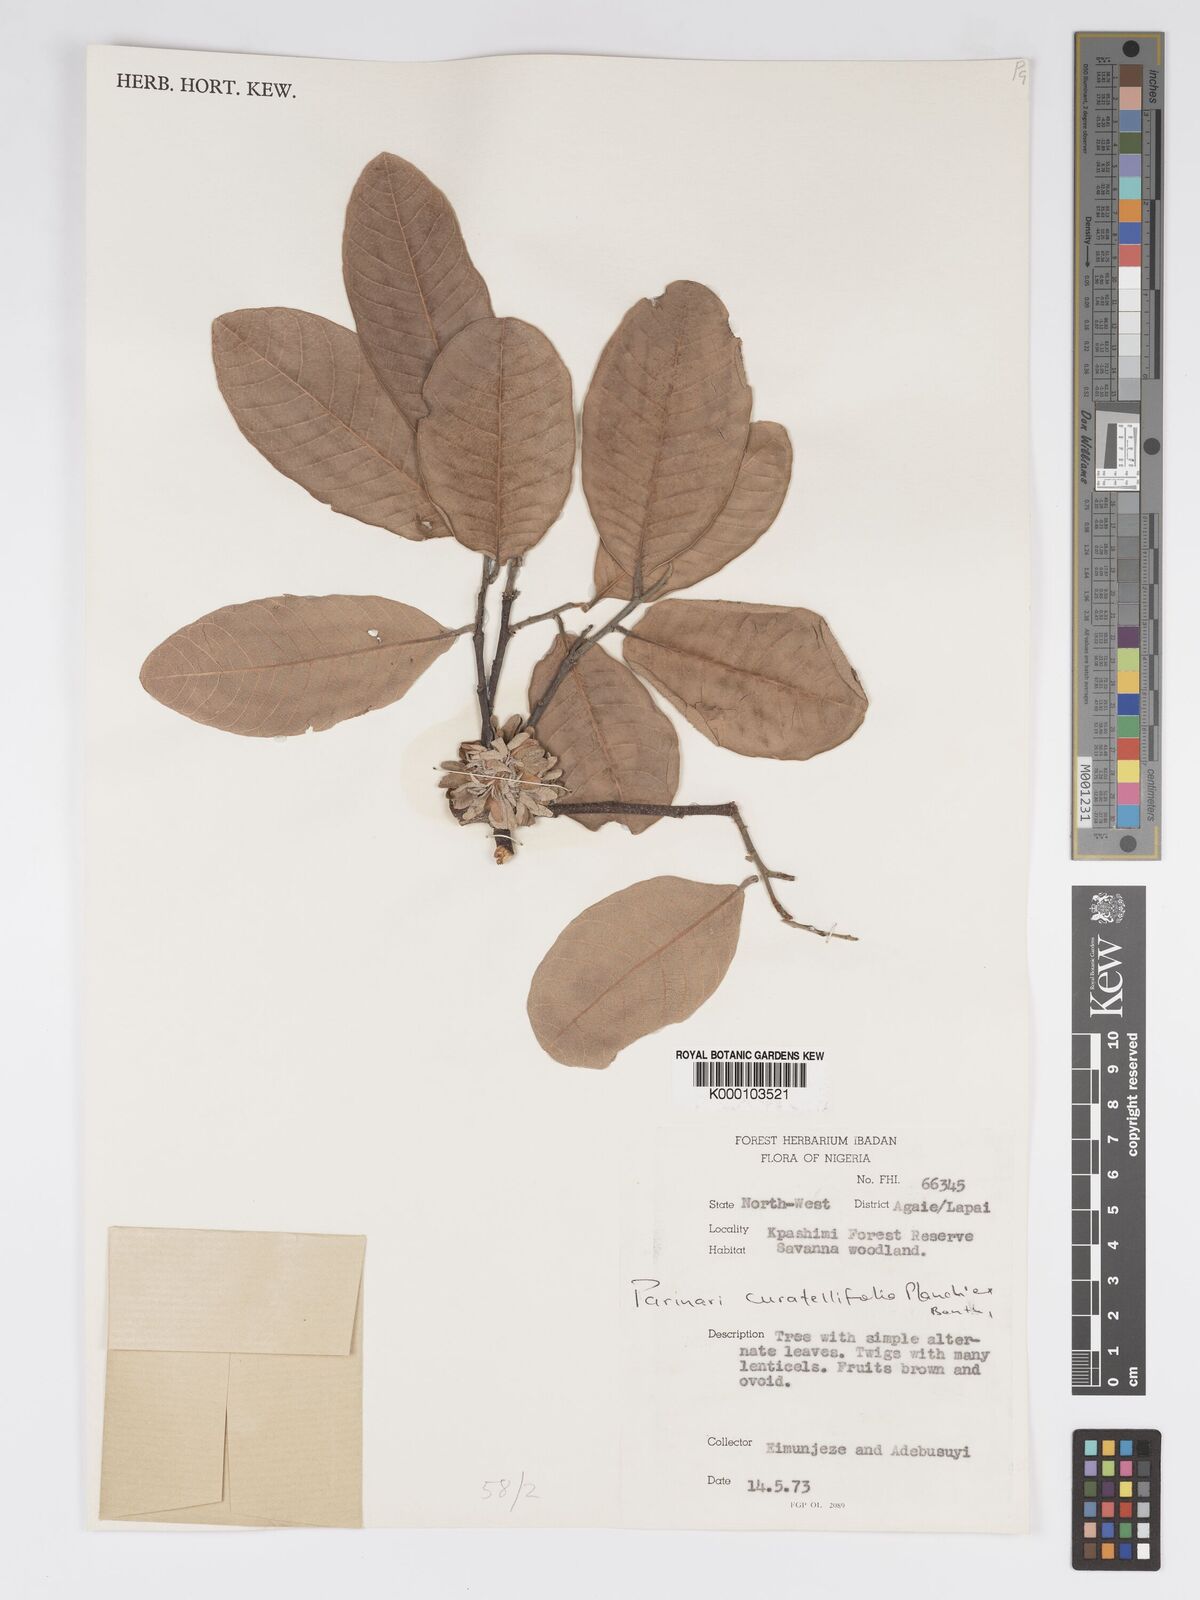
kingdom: Plantae
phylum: Tracheophyta
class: Magnoliopsida
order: Malpighiales
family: Chrysobalanaceae
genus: Parinari
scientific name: Parinari curatellifolia
